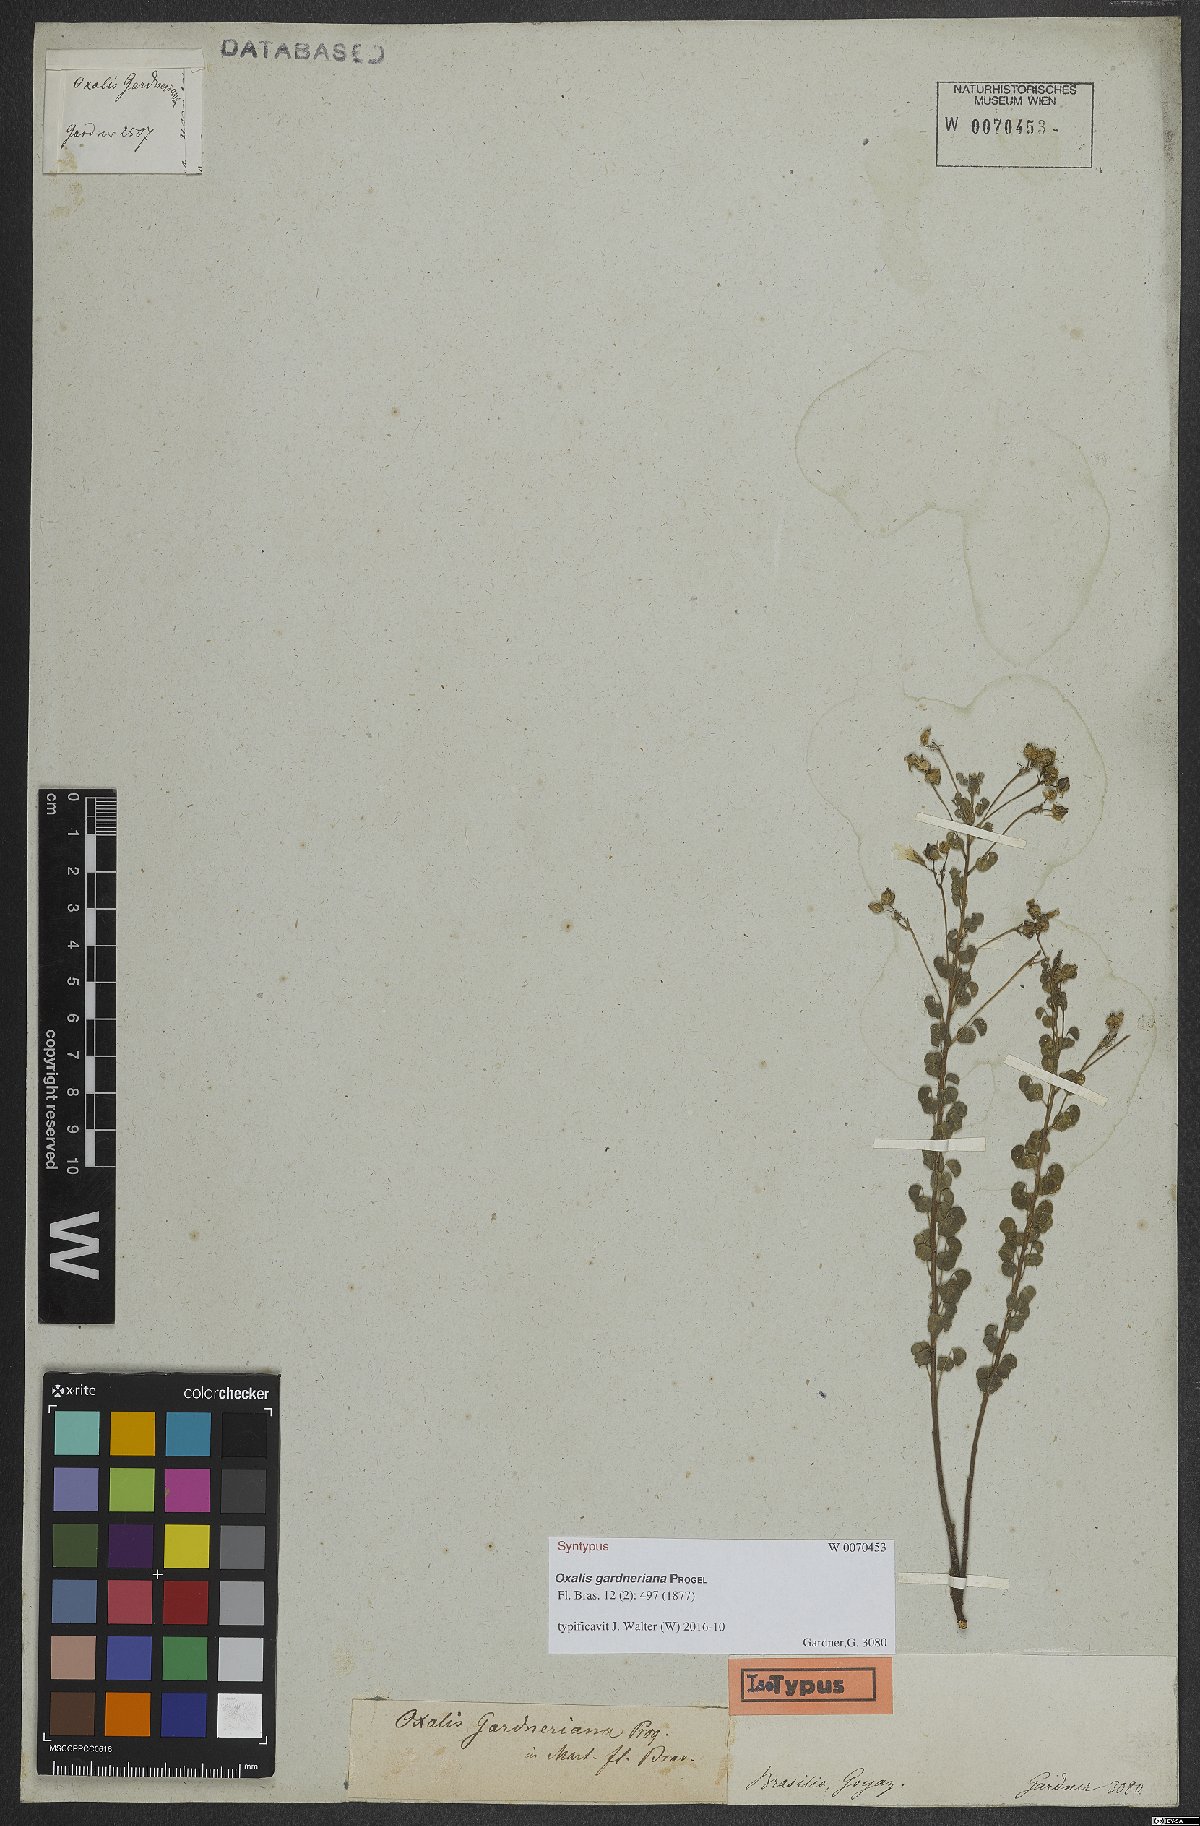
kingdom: Plantae
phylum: Tracheophyta
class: Magnoliopsida
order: Oxalidales
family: Oxalidaceae
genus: Oxalis
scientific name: Oxalis gardneriana
